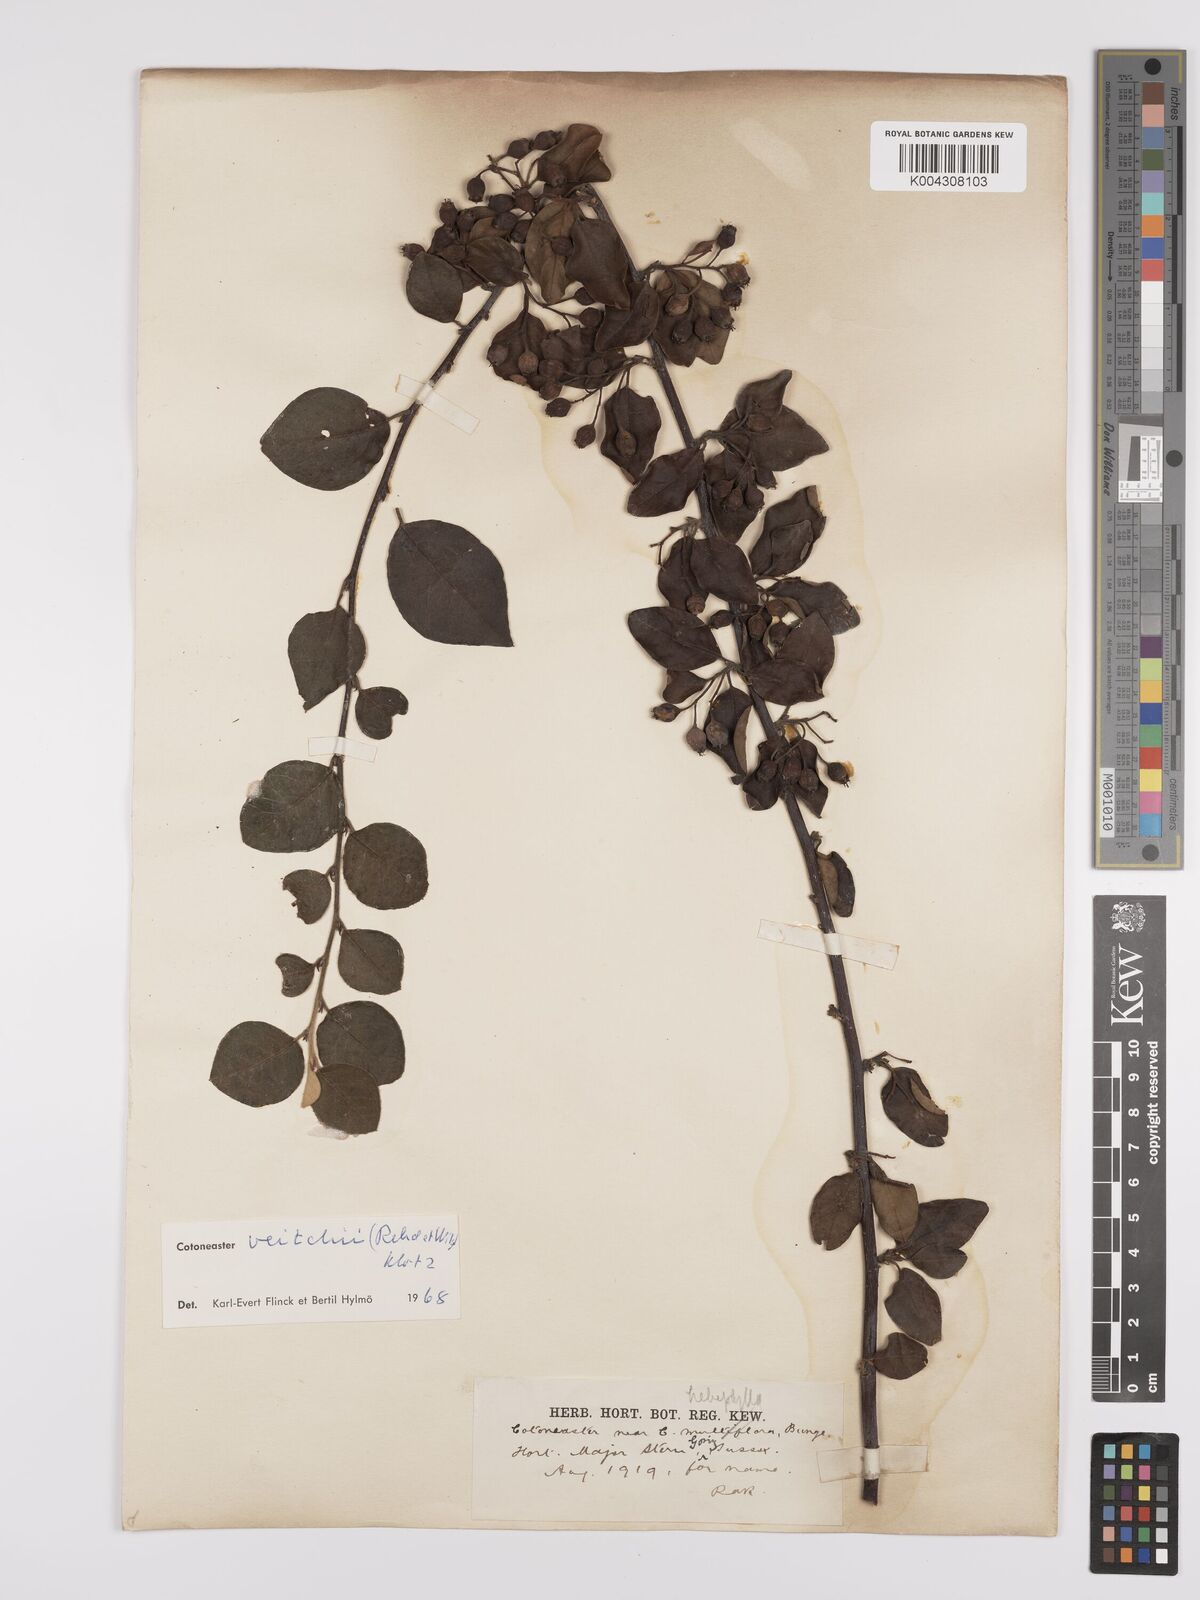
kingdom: Plantae
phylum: Tracheophyta
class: Magnoliopsida
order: Rosales
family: Rosaceae
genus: Cotoneaster
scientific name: Cotoneaster hebephyllus
